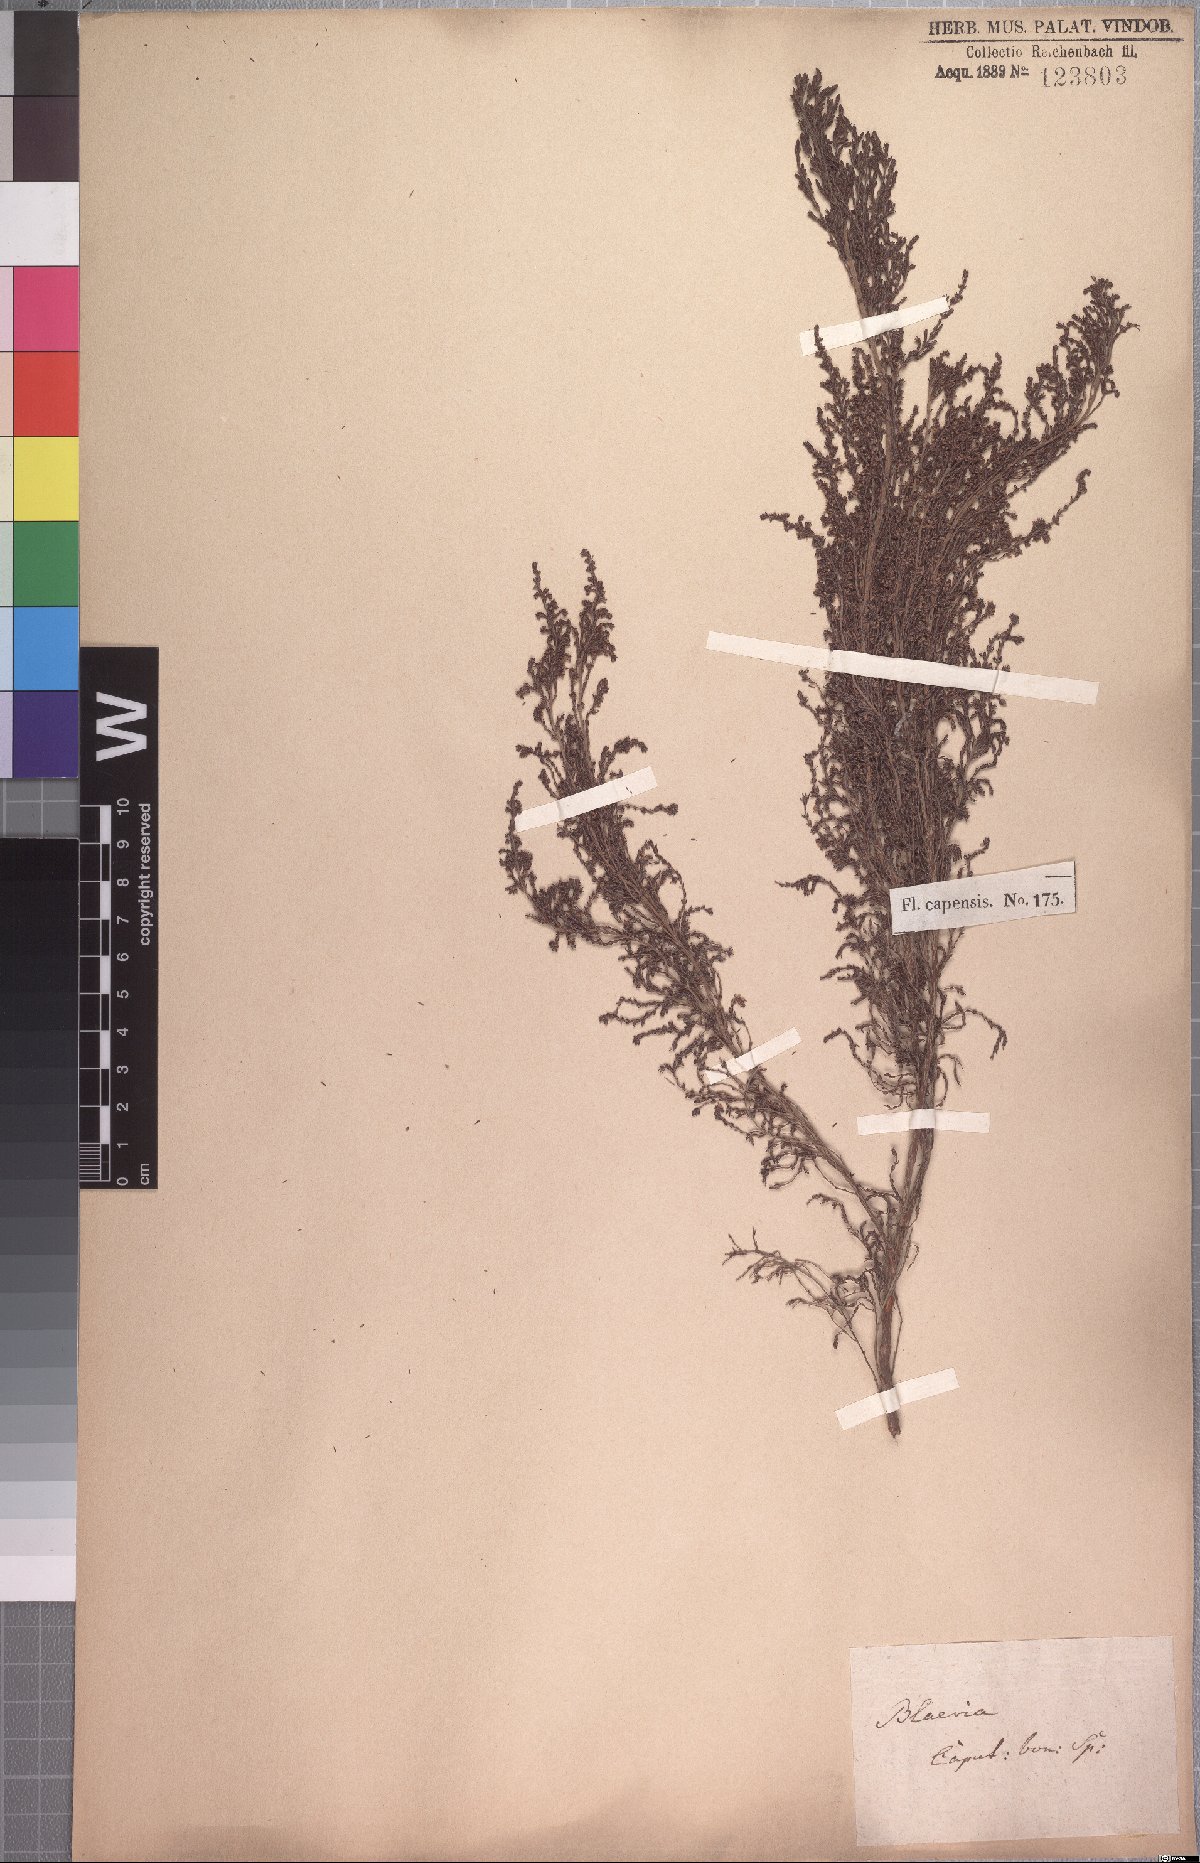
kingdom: Plantae
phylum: Tracheophyta
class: Magnoliopsida
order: Ericales
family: Ericaceae
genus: Erica
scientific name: Erica urceolata
